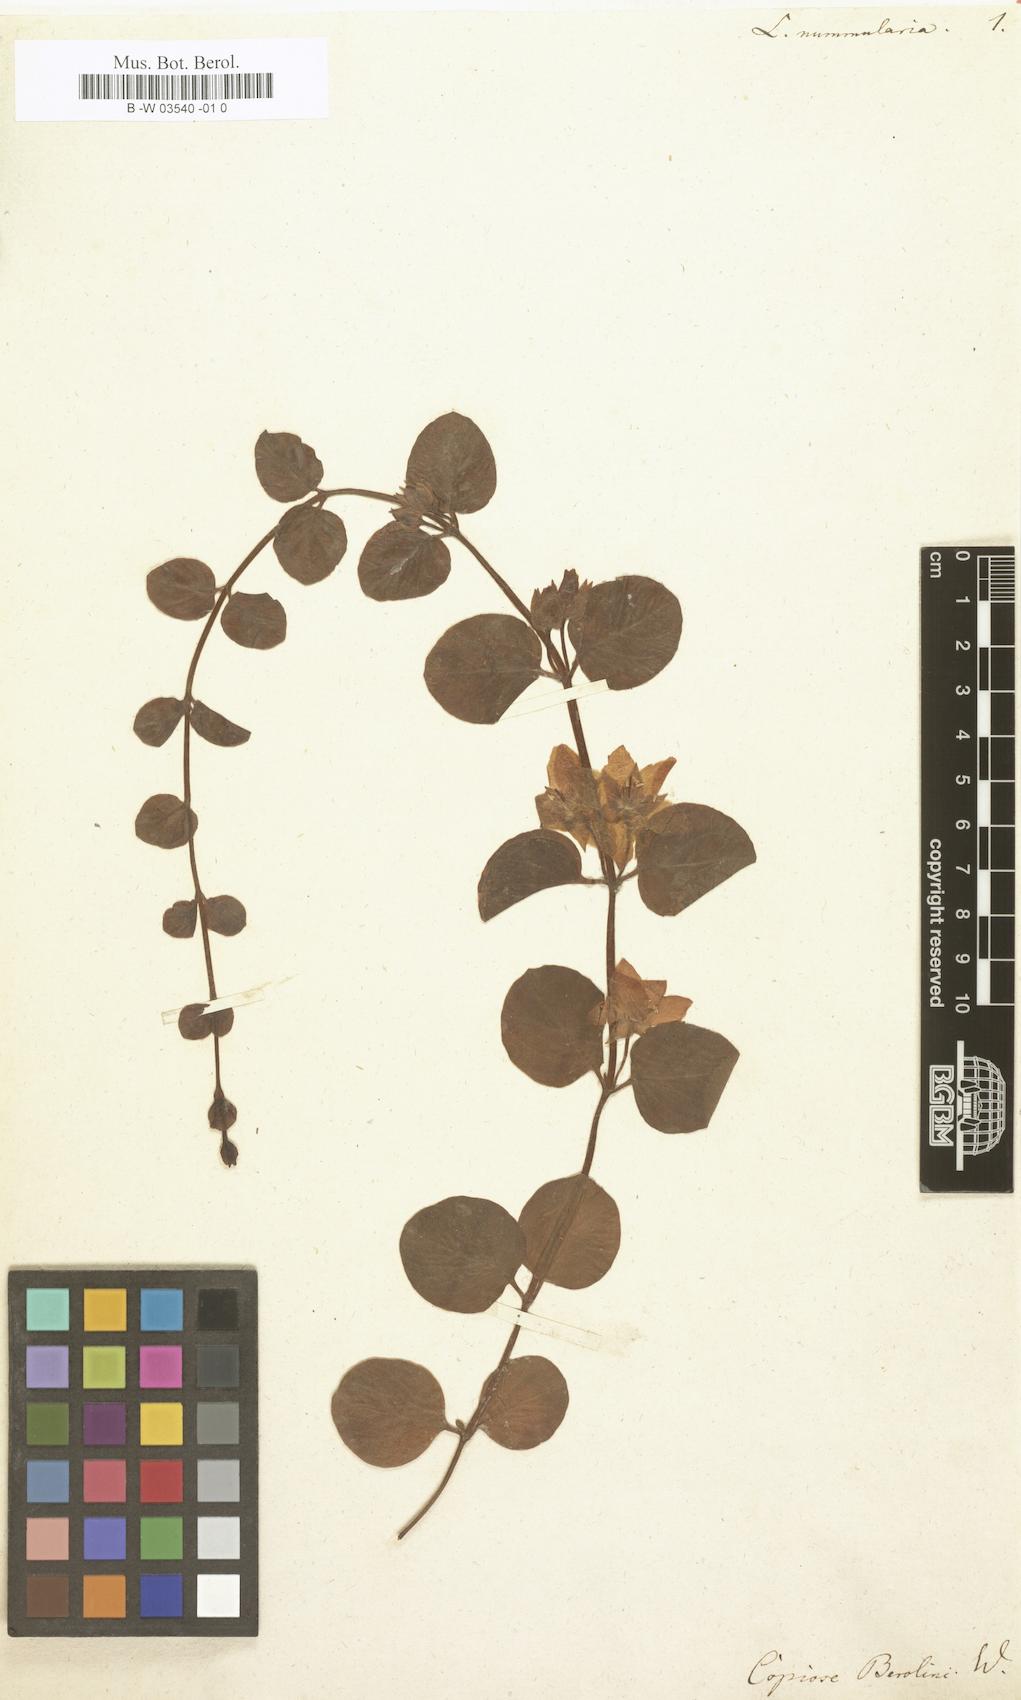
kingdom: Plantae
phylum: Tracheophyta
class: Magnoliopsida
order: Ericales
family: Primulaceae
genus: Lysimachia
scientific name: Lysimachia nummularia
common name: Moneywort
